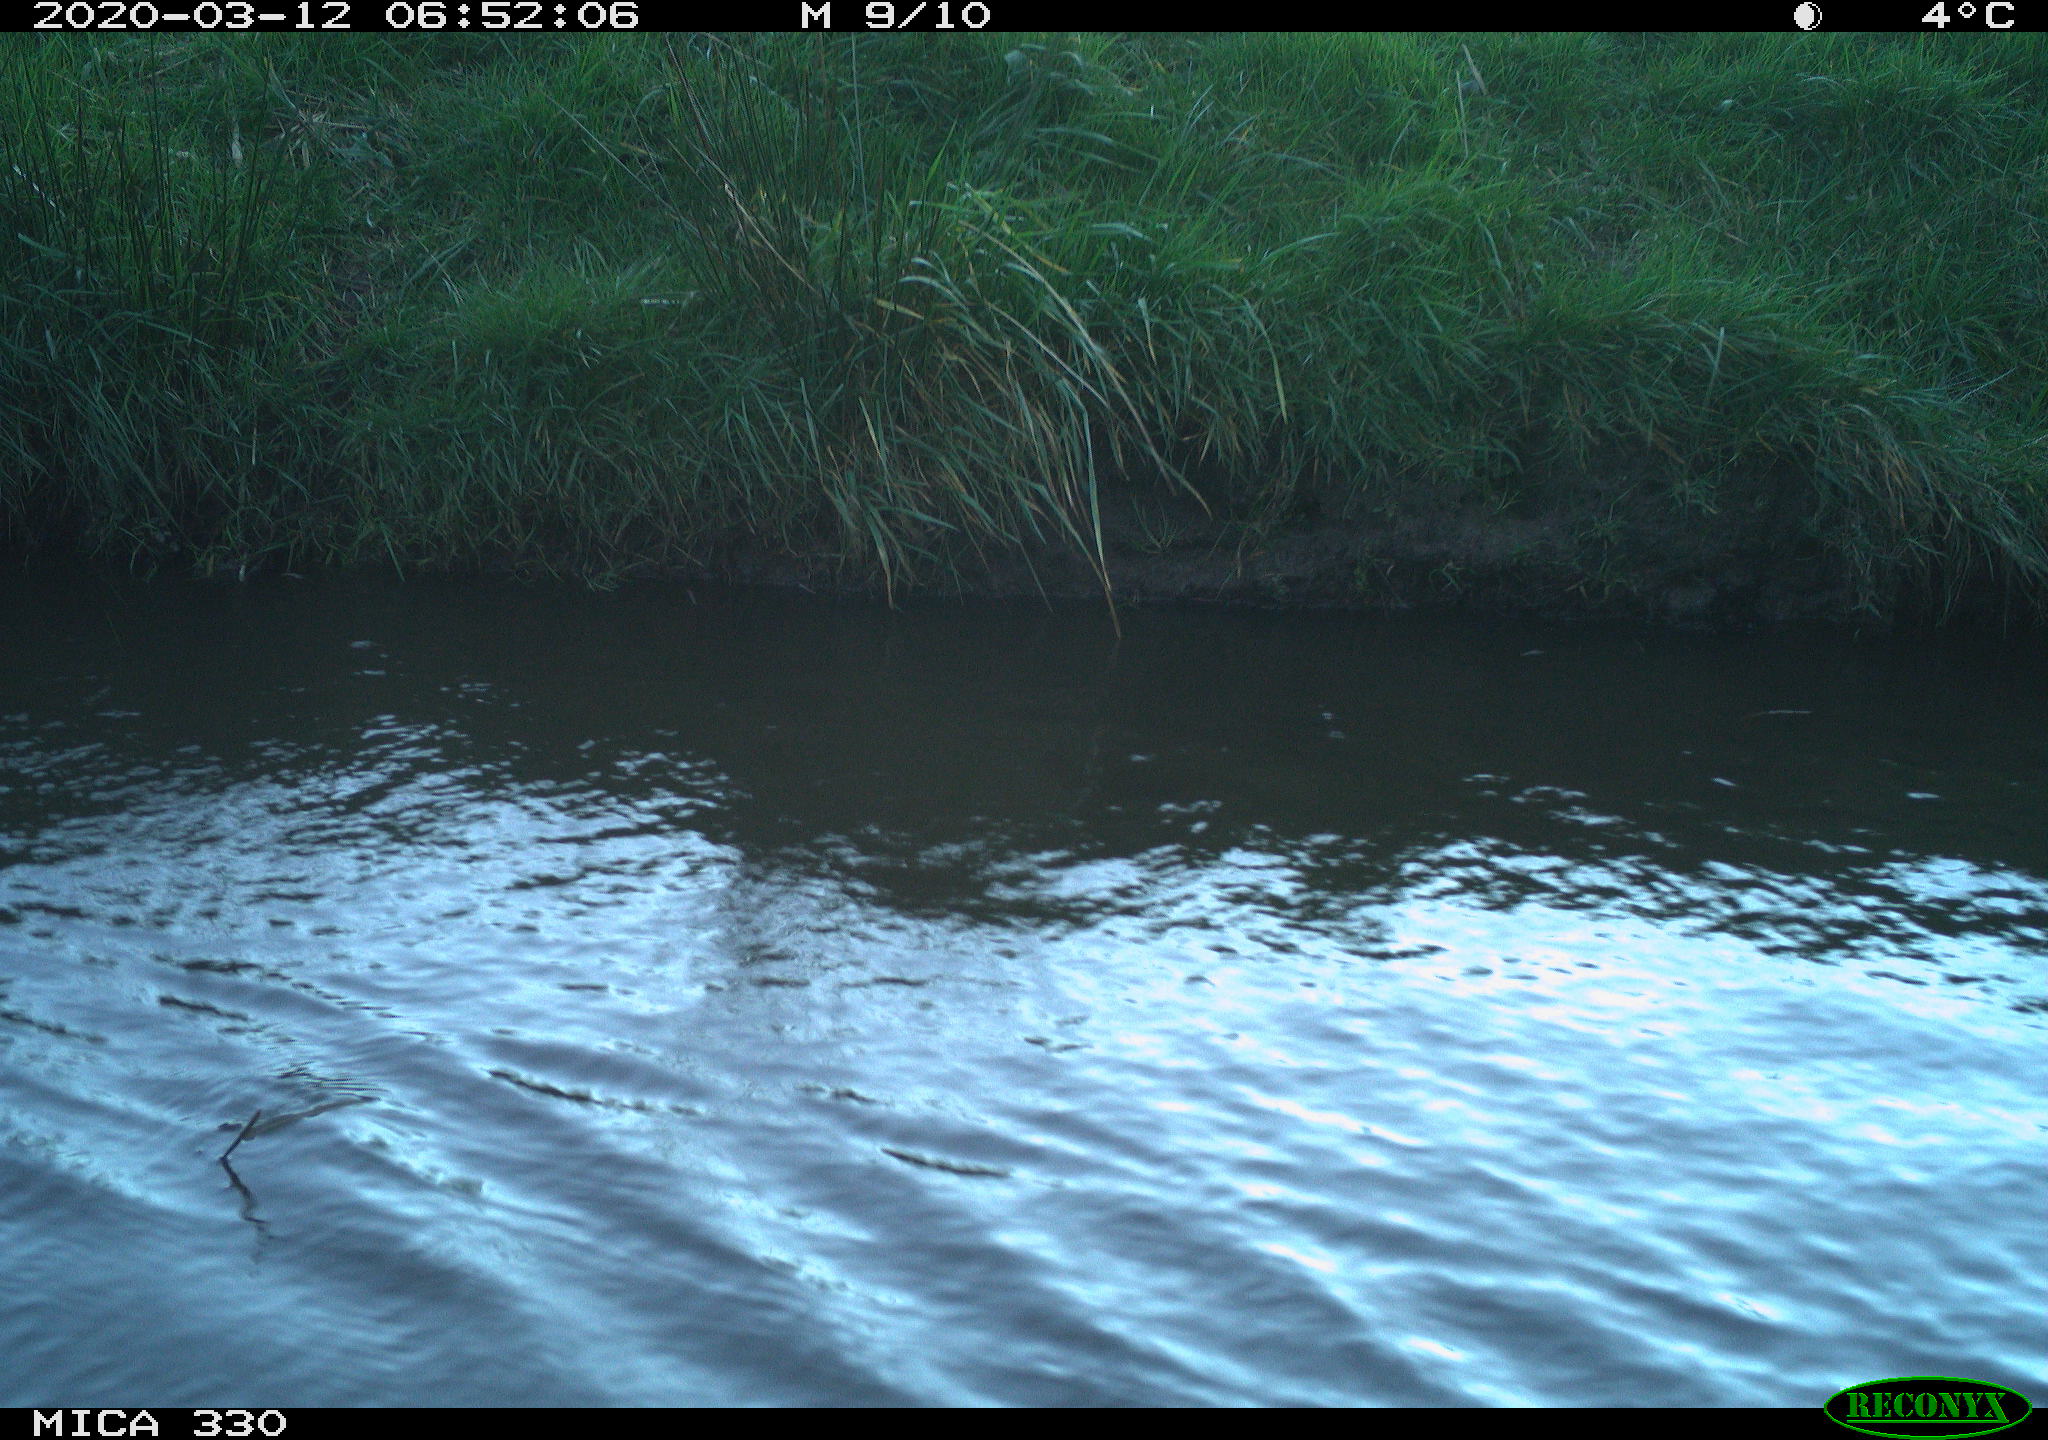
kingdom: Animalia
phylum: Chordata
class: Aves
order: Anseriformes
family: Anatidae
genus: Anas
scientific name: Anas platyrhynchos
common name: Mallard
